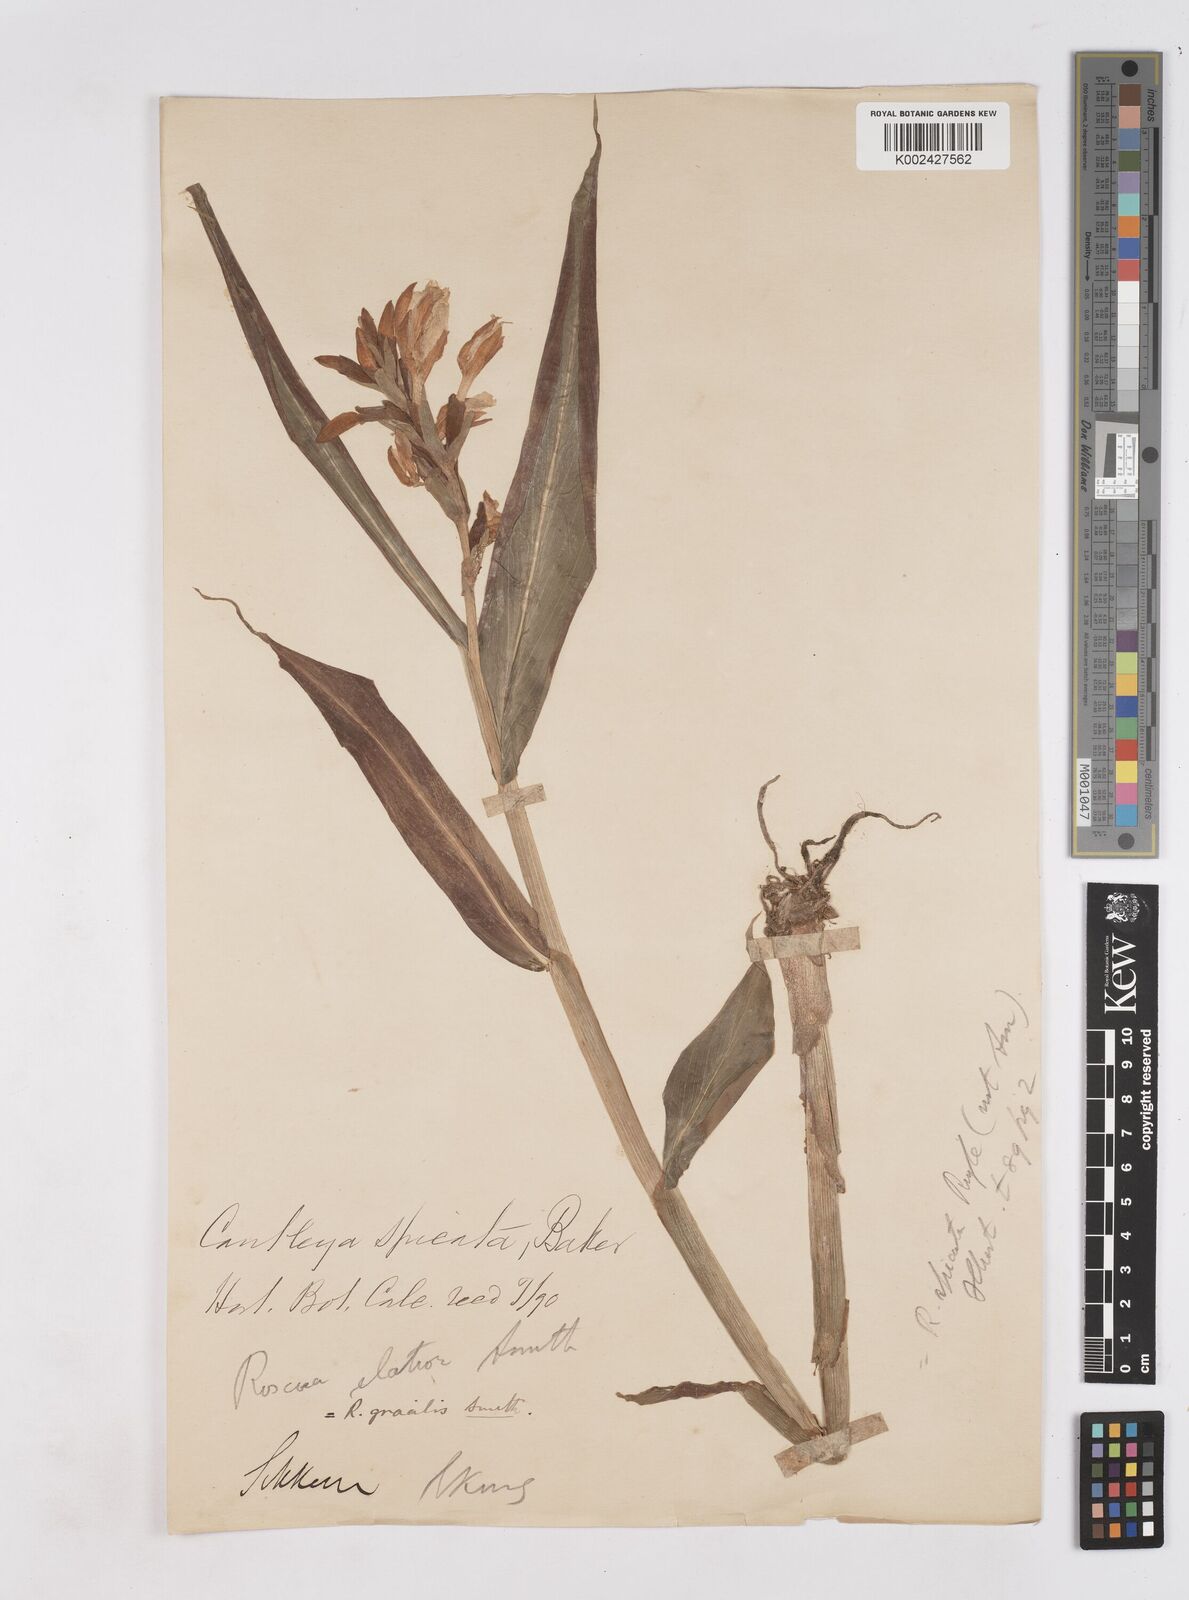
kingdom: Plantae
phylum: Tracheophyta
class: Liliopsida
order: Zingiberales
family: Zingiberaceae
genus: Cautleya
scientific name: Cautleya spicata
